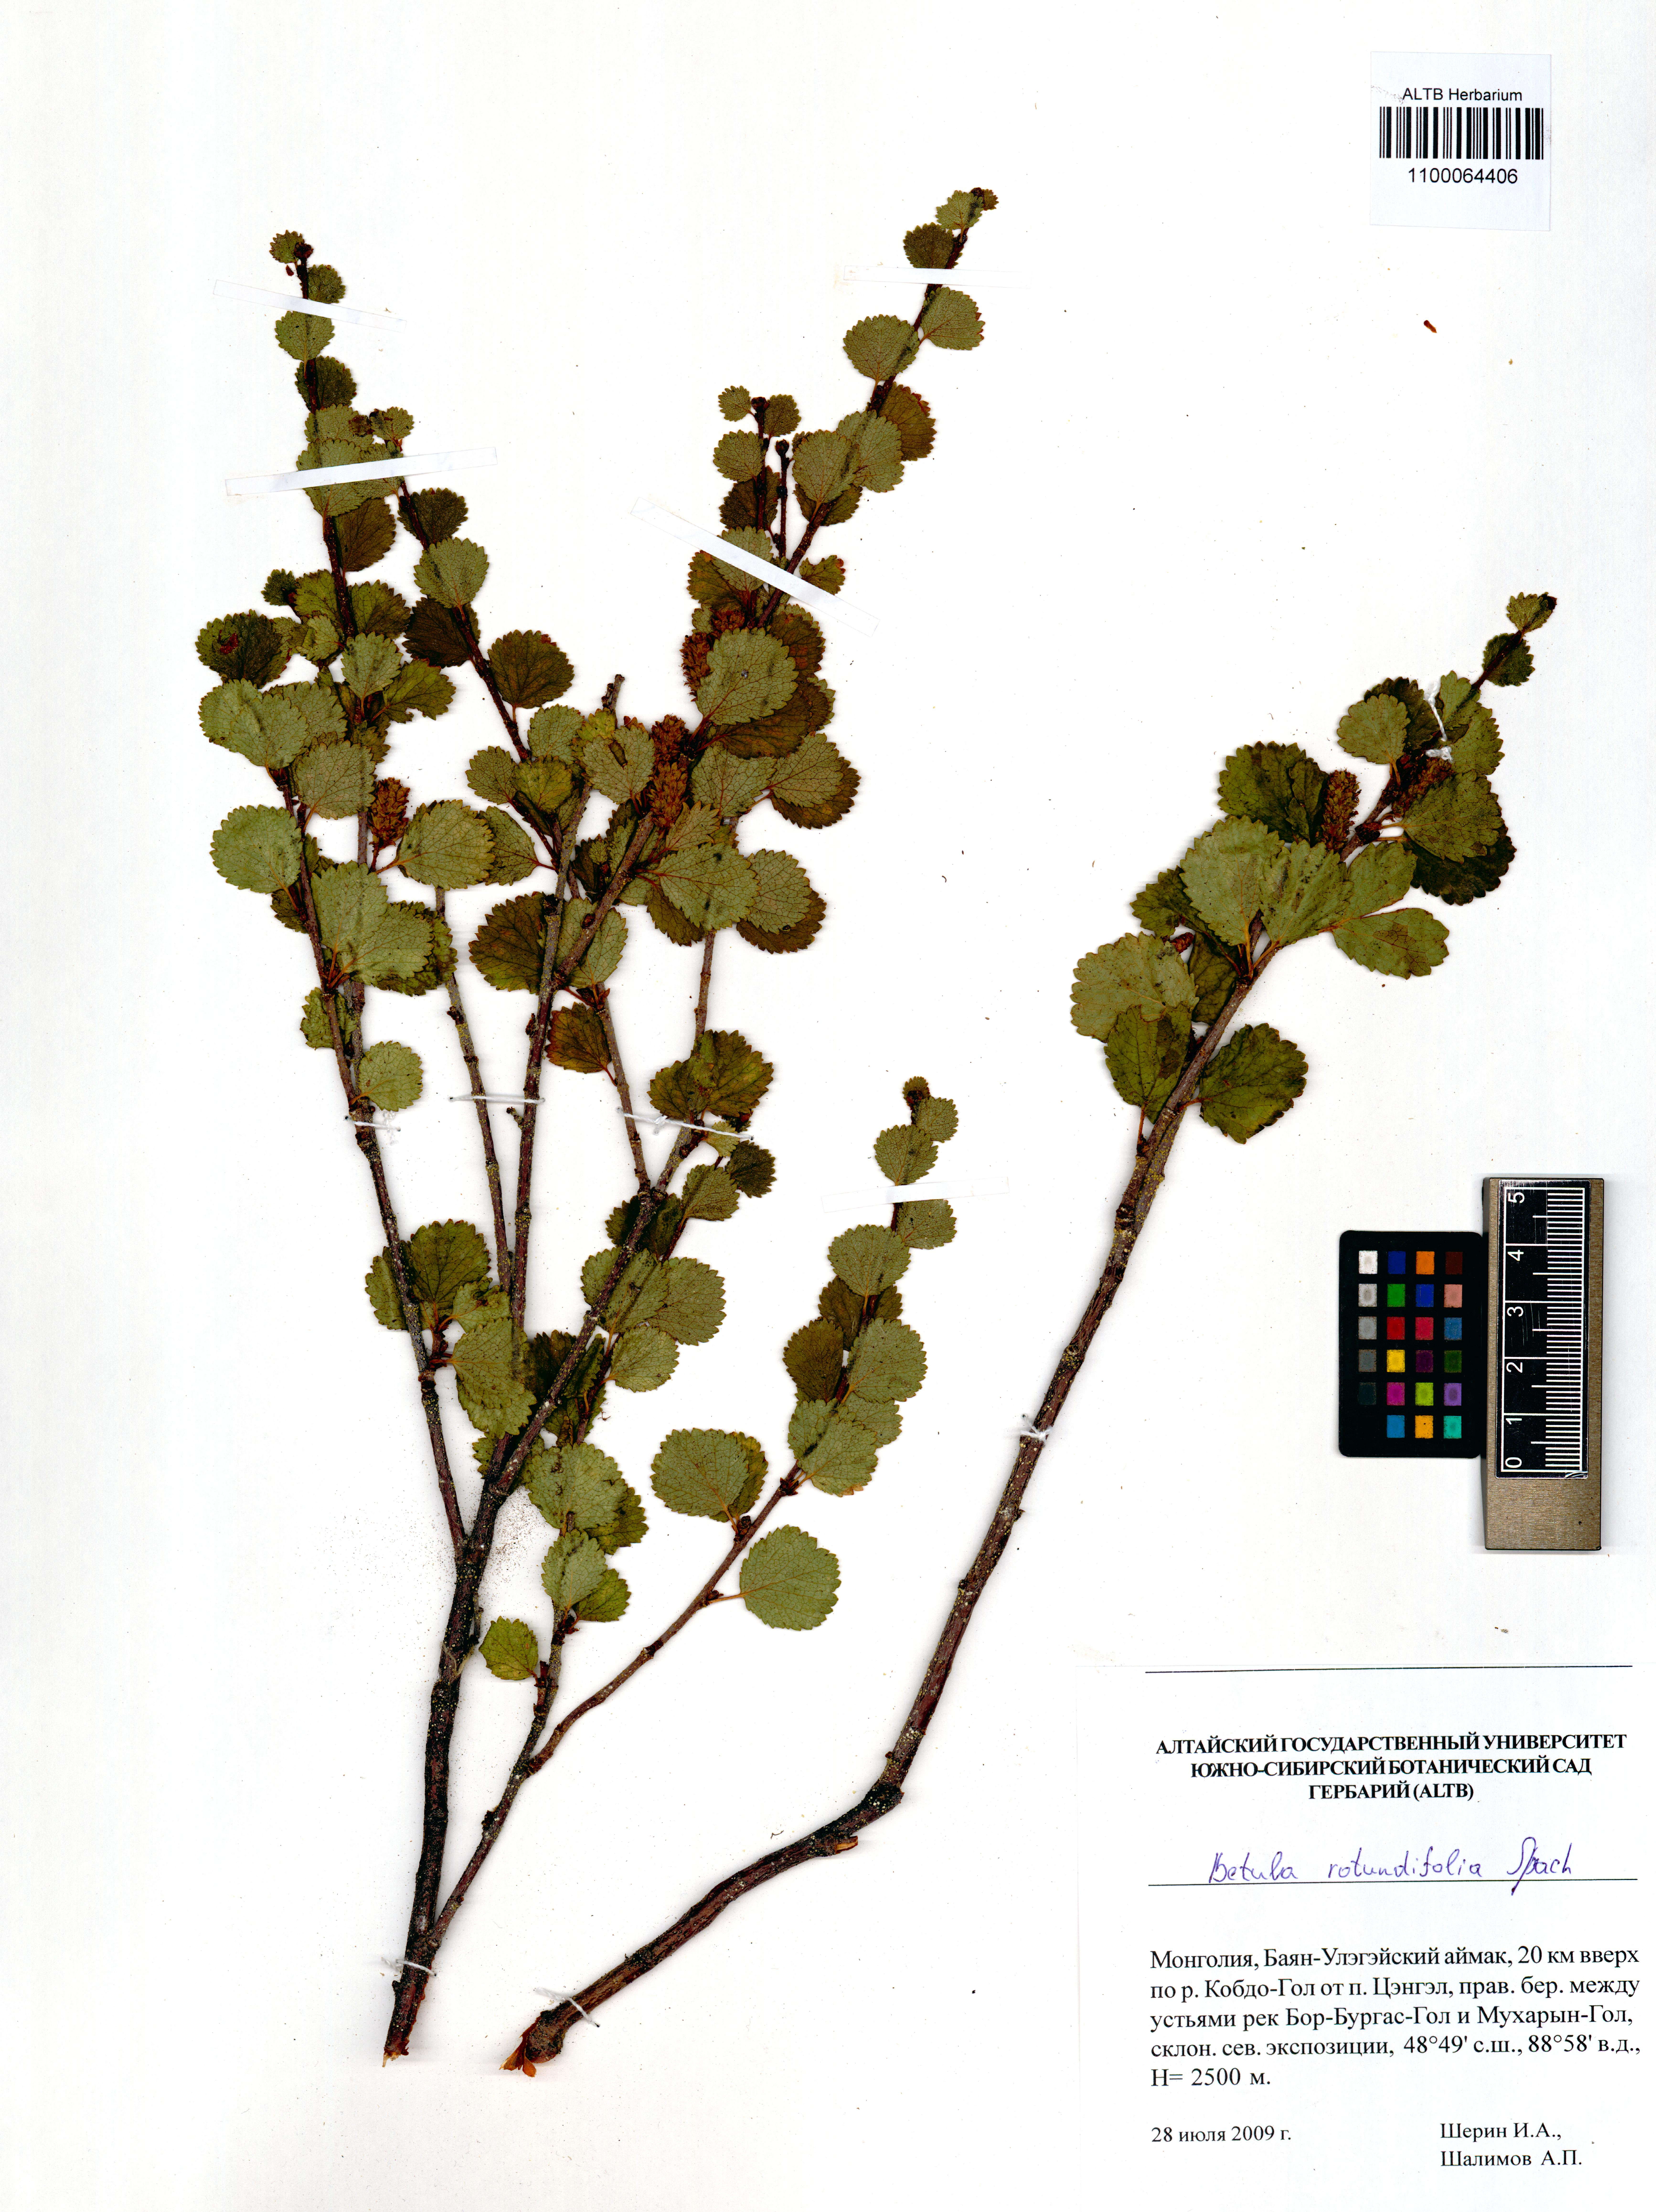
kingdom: Plantae
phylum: Tracheophyta
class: Magnoliopsida
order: Fagales
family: Betulaceae
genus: Betula
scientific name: Betula glandulosa
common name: Dwarf birch
